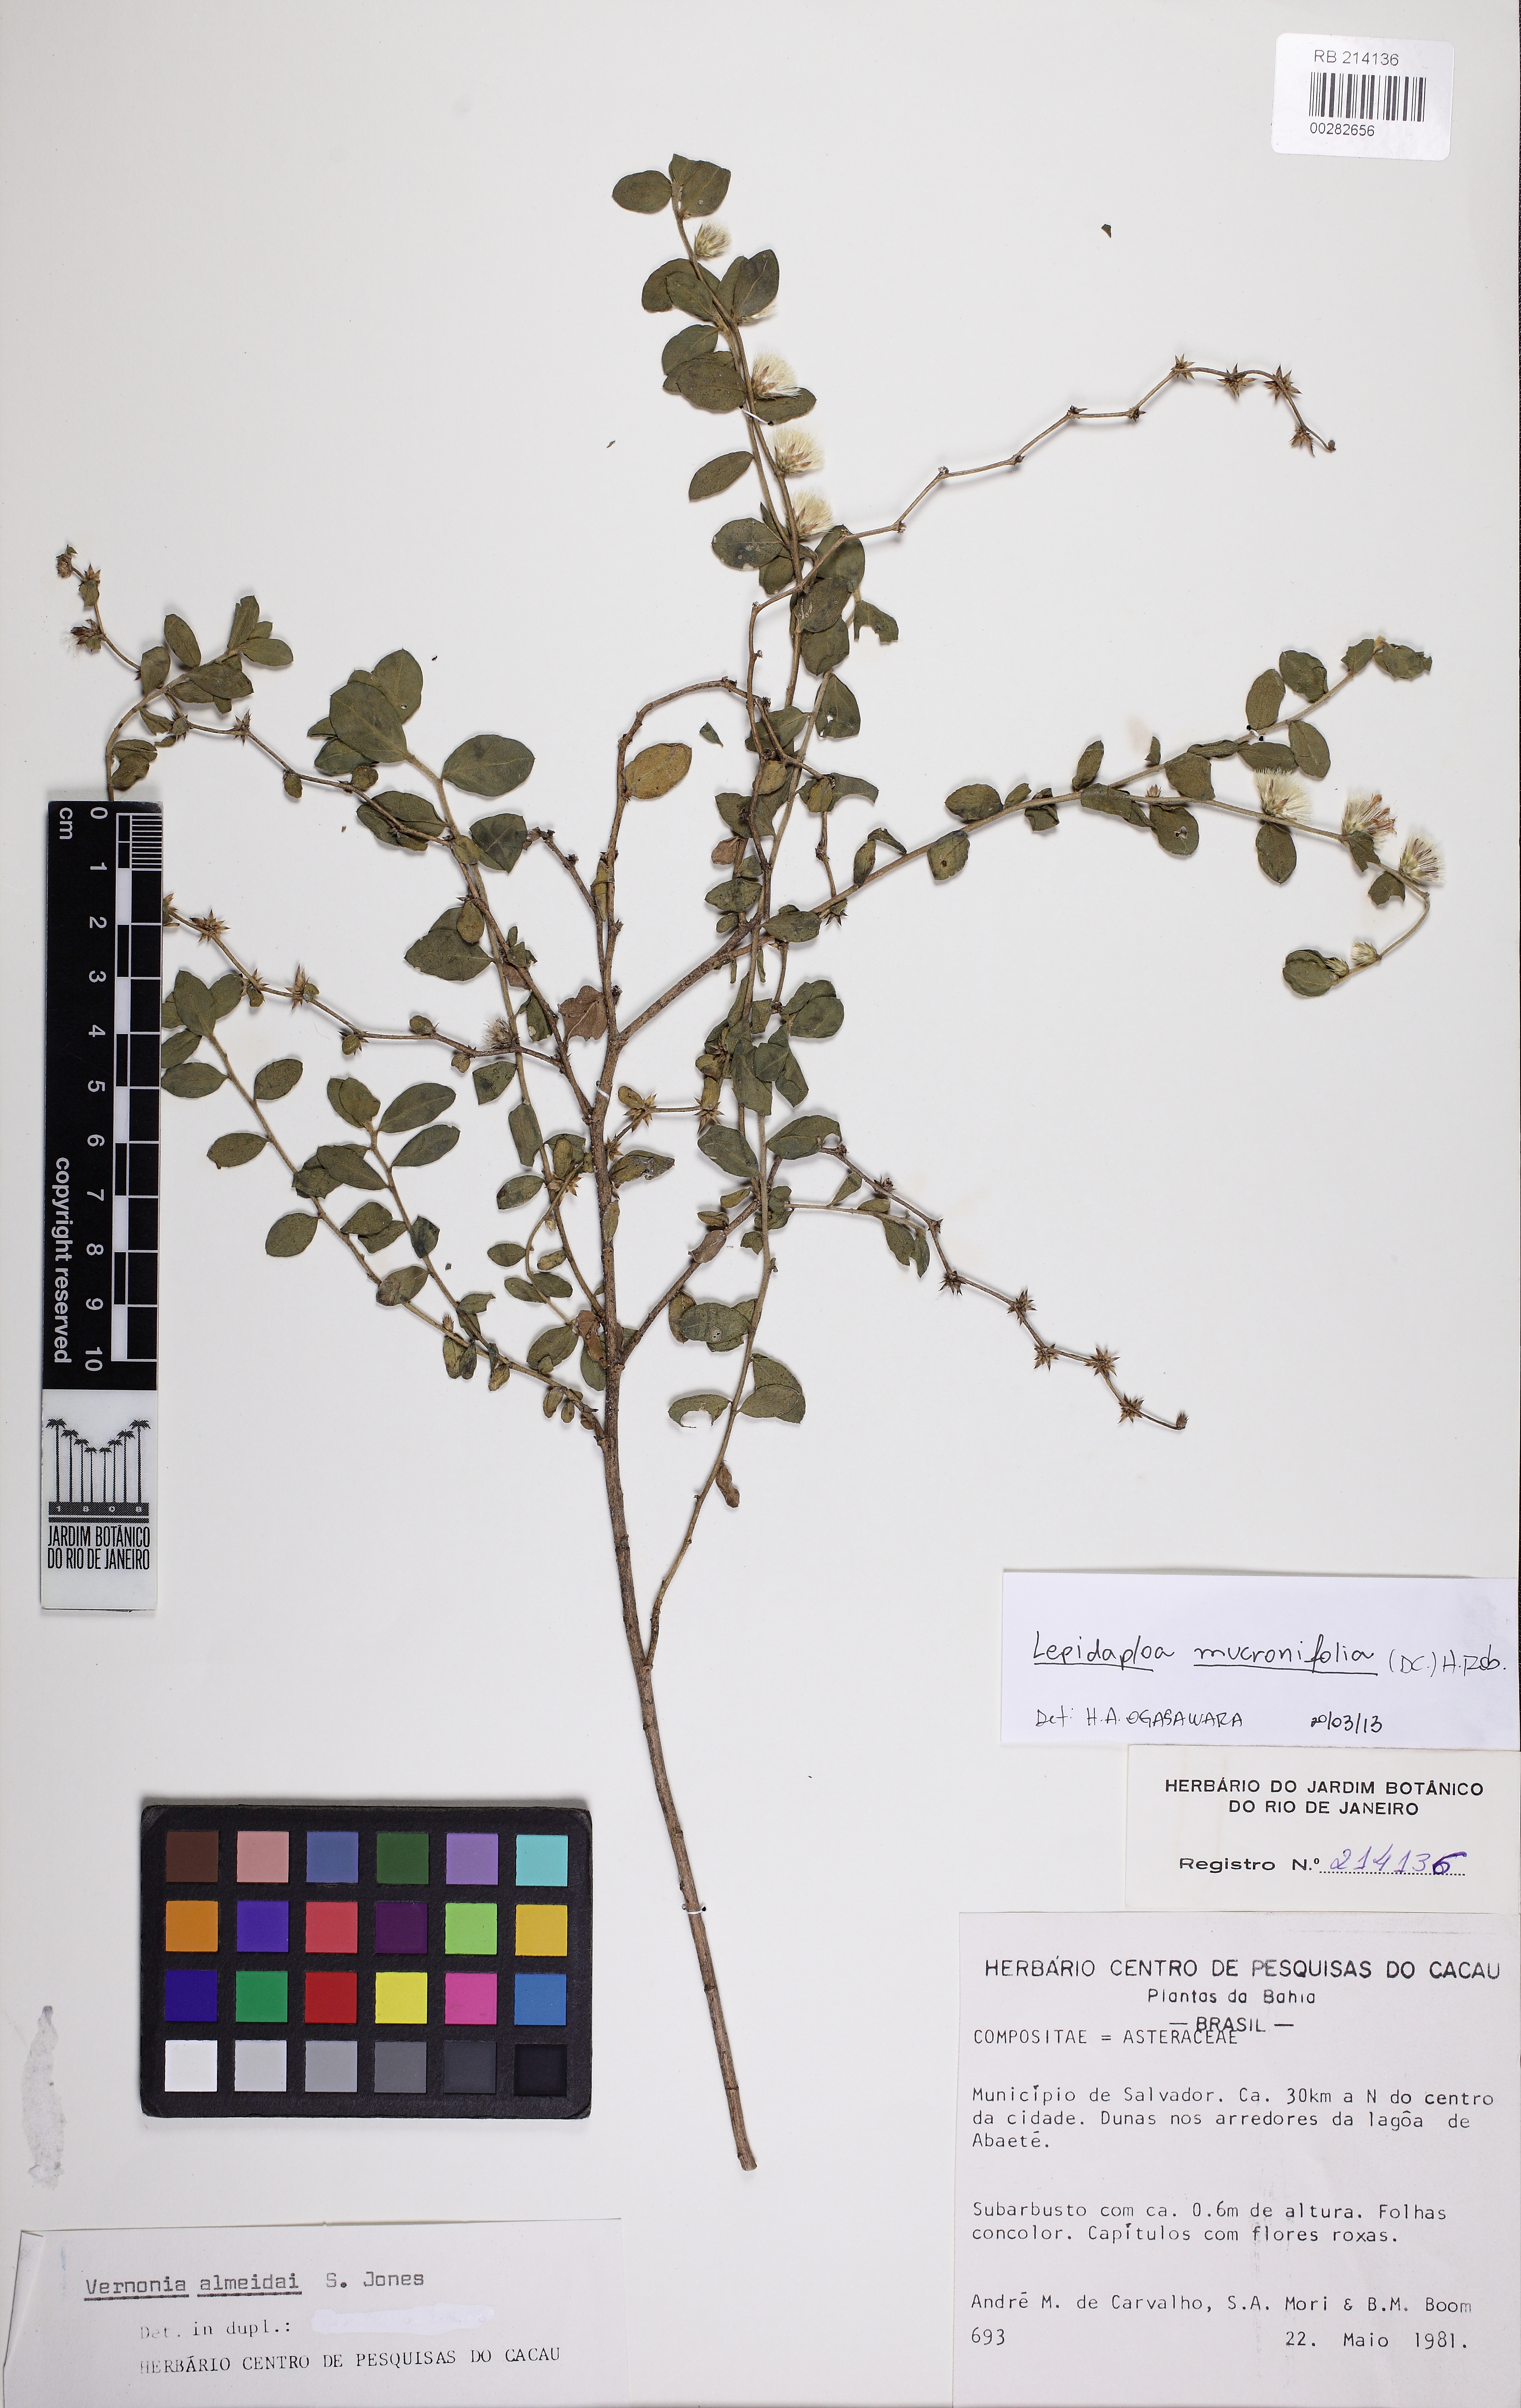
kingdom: Plantae
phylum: Tracheophyta
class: Magnoliopsida
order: Asterales
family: Asteraceae
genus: Lepidaploa
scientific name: Lepidaploa mucronifolia
